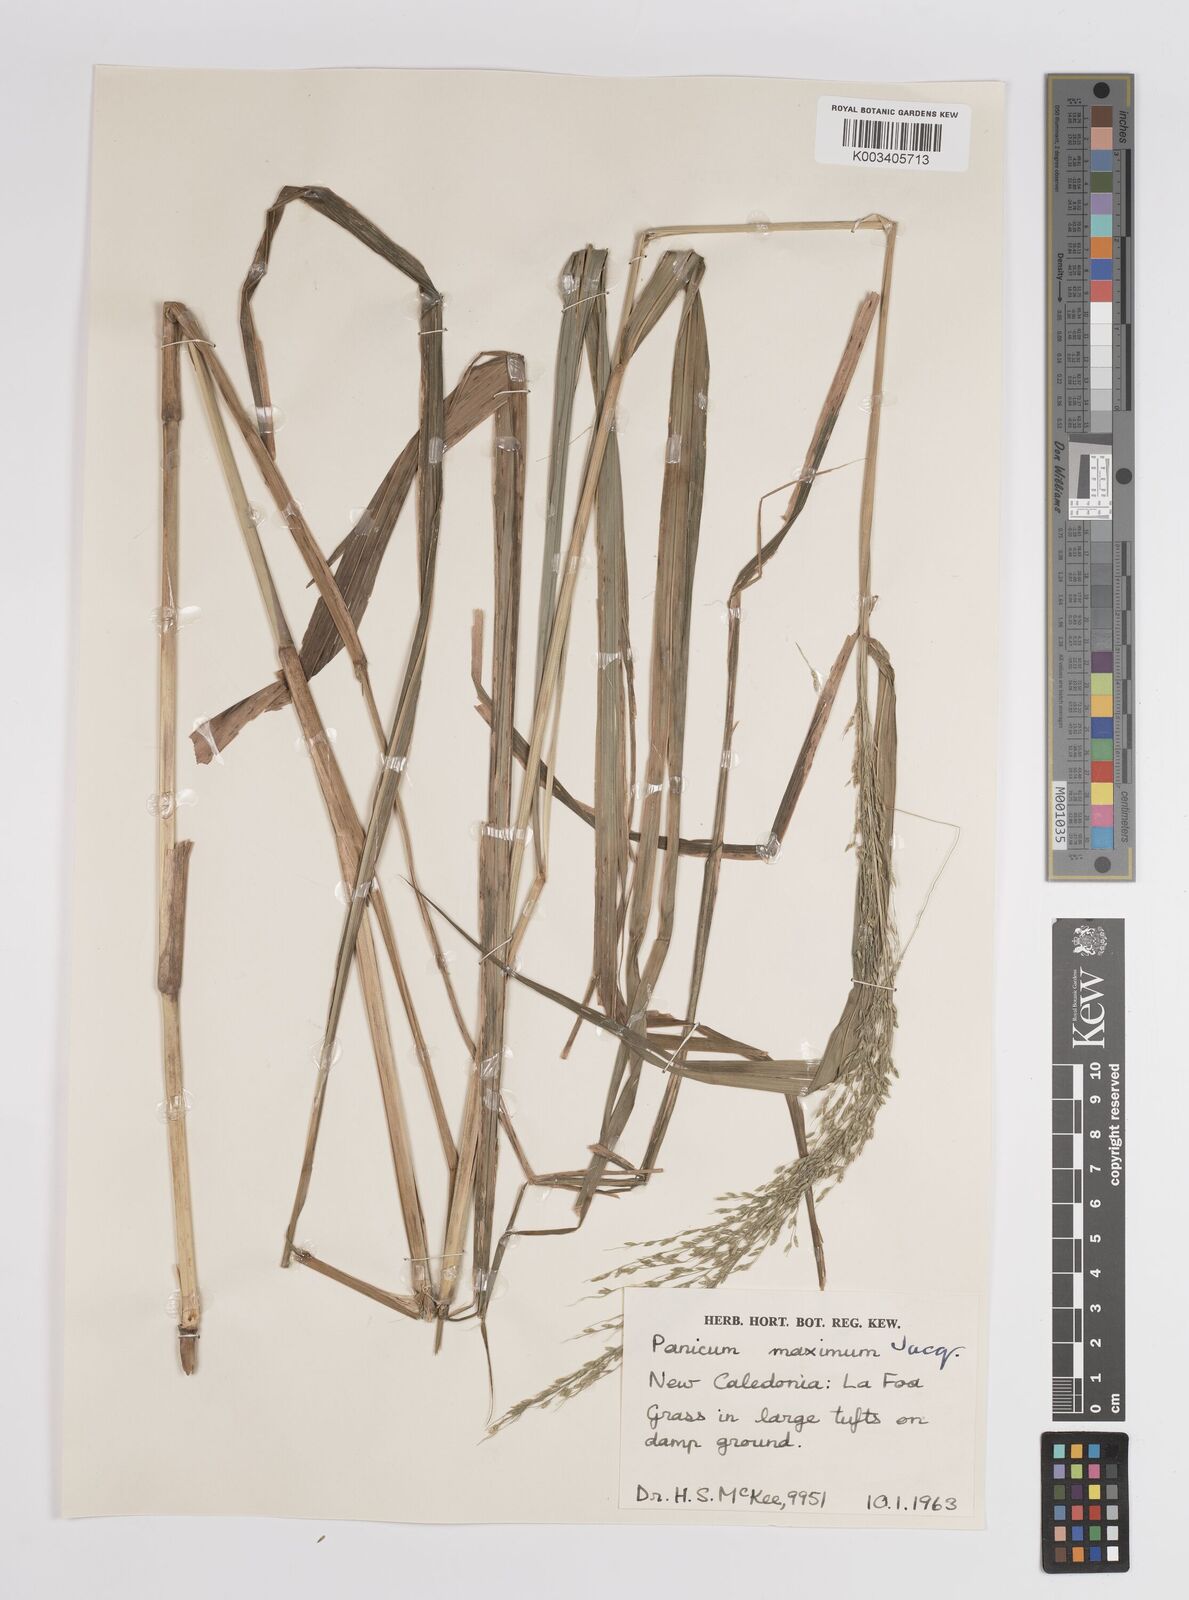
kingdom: Plantae
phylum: Tracheophyta
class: Liliopsida
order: Poales
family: Poaceae
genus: Megathyrsus
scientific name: Megathyrsus maximus
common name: Guineagrass
